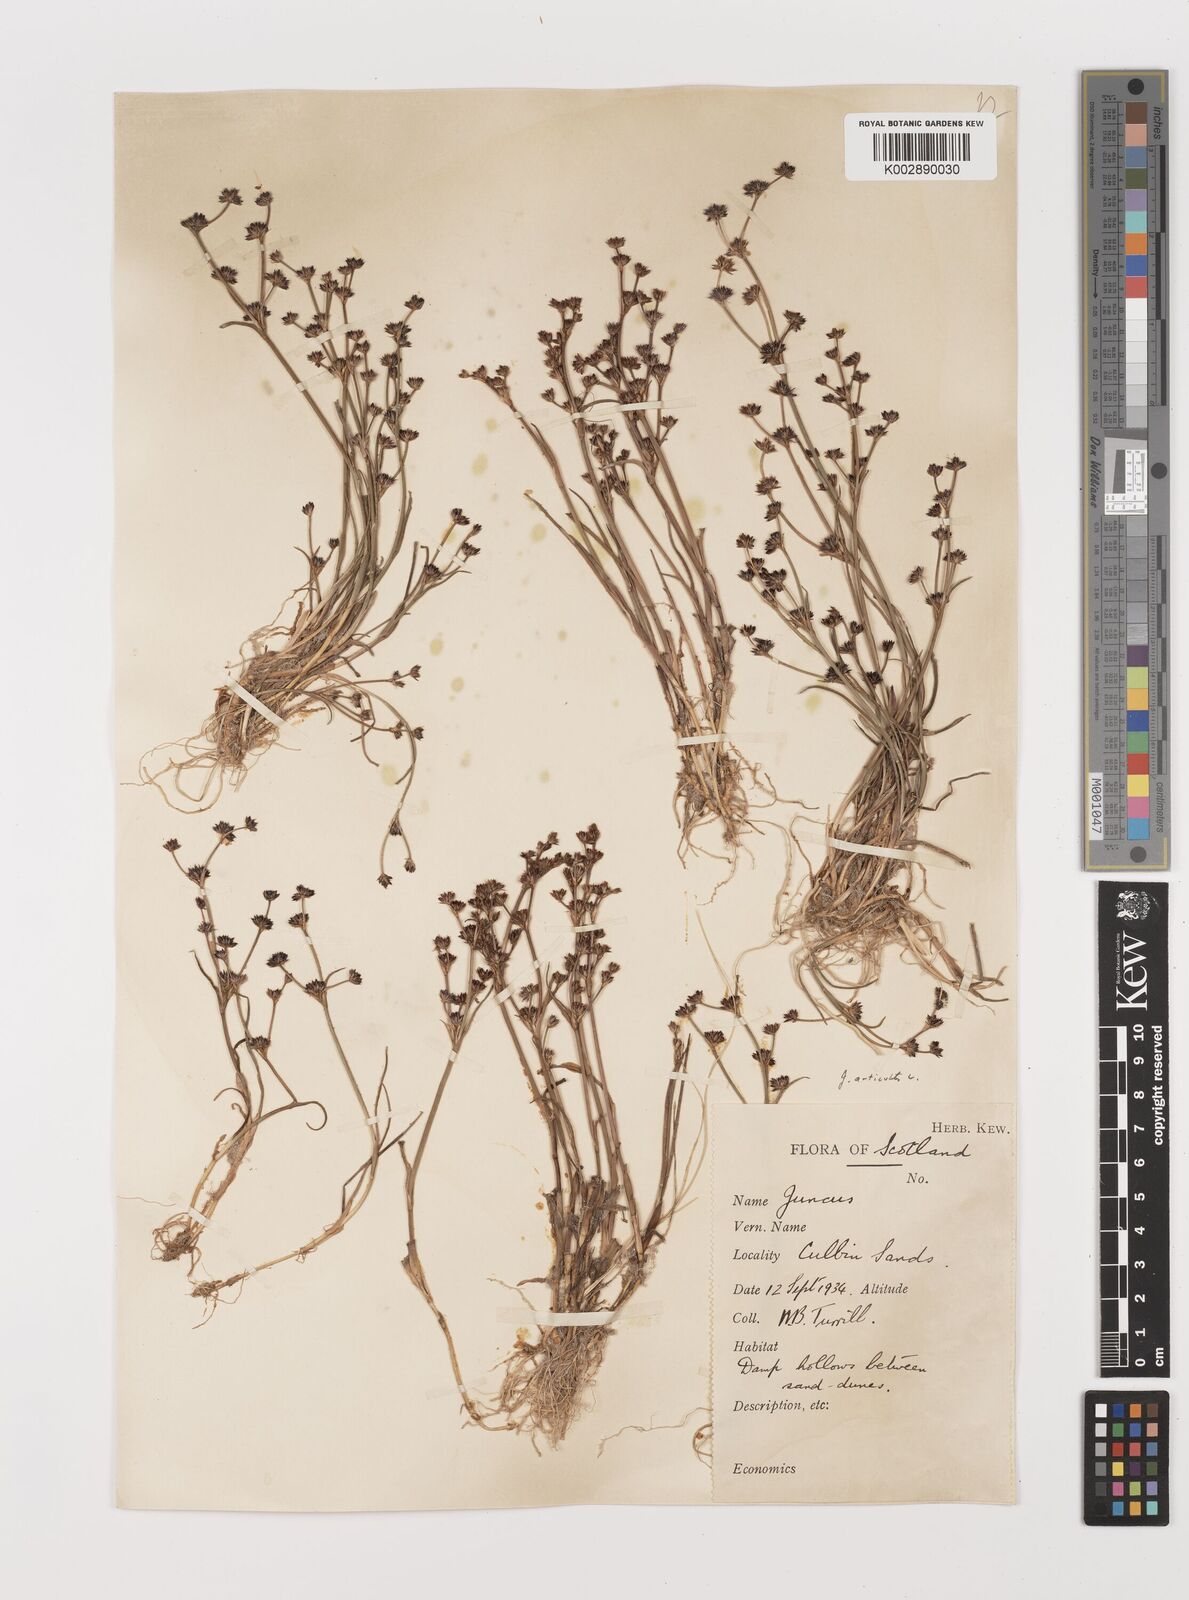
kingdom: Plantae
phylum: Tracheophyta
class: Liliopsida
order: Poales
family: Juncaceae
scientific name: Juncaceae
